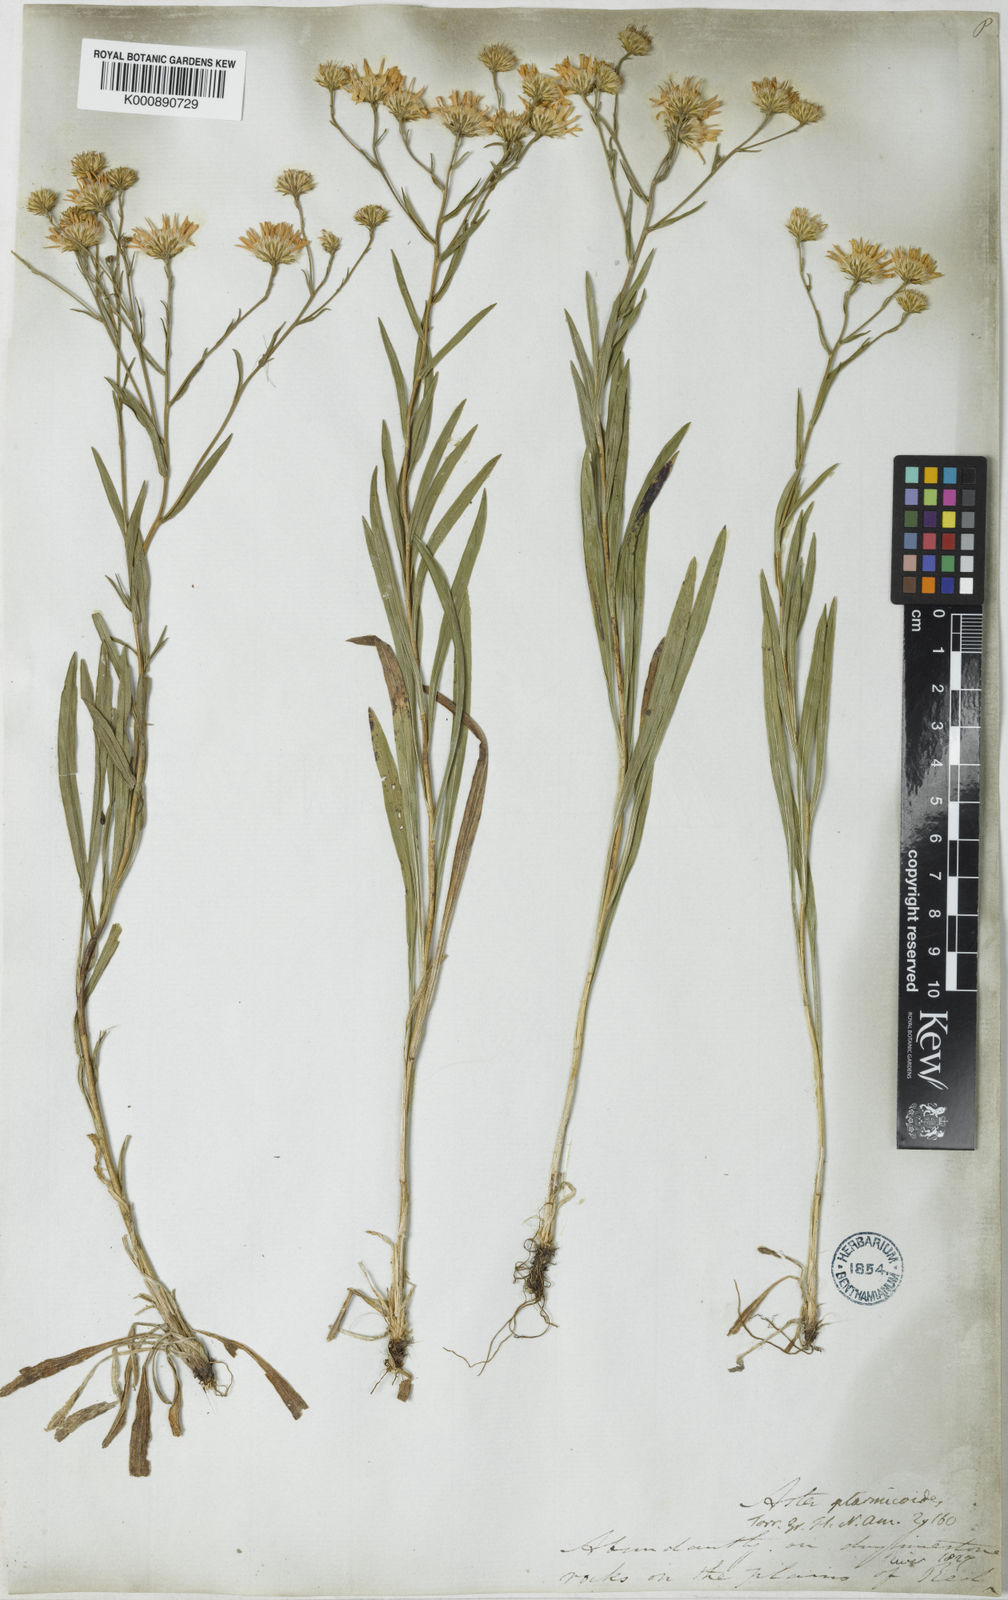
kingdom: Plantae
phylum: Tracheophyta
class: Magnoliopsida
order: Asterales
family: Asteraceae
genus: Solidago
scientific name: Solidago lutescens
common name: Yellow upland goldenrod
